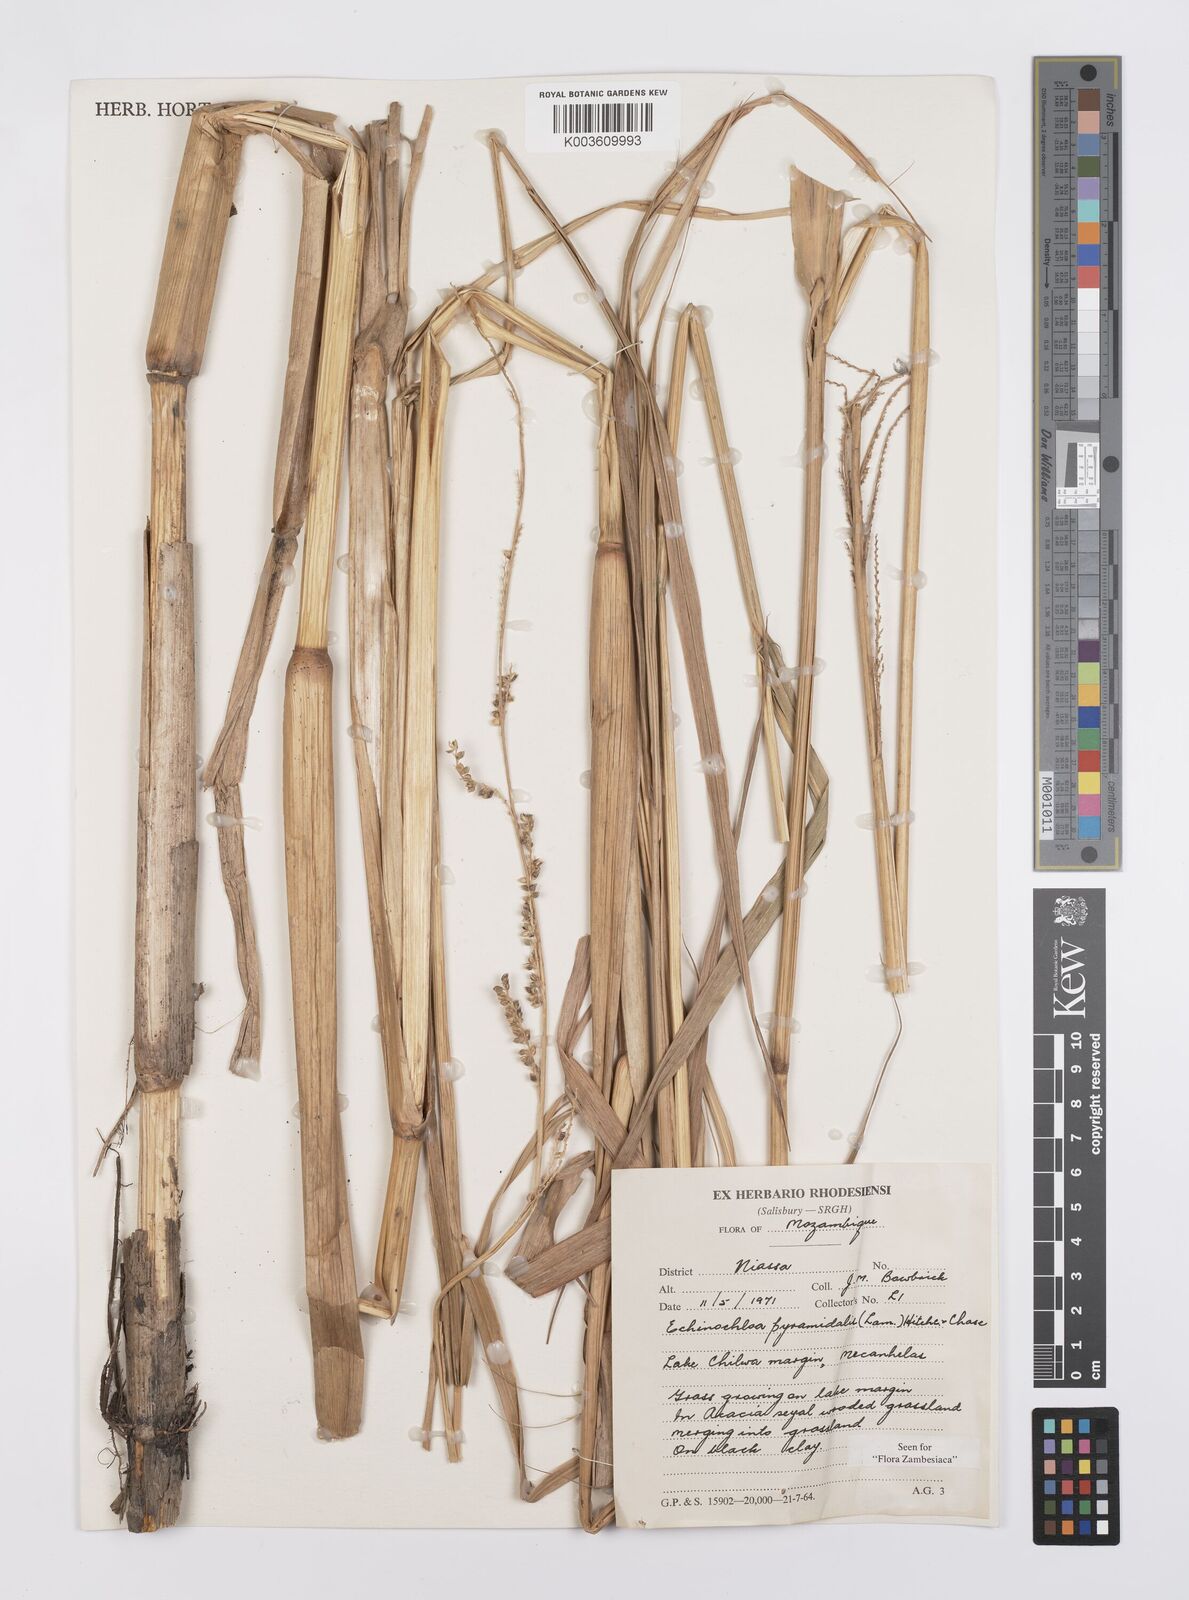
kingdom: Plantae
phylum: Tracheophyta
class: Liliopsida
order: Poales
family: Poaceae
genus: Echinochloa
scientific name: Echinochloa pyramidalis
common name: Antelope grass
